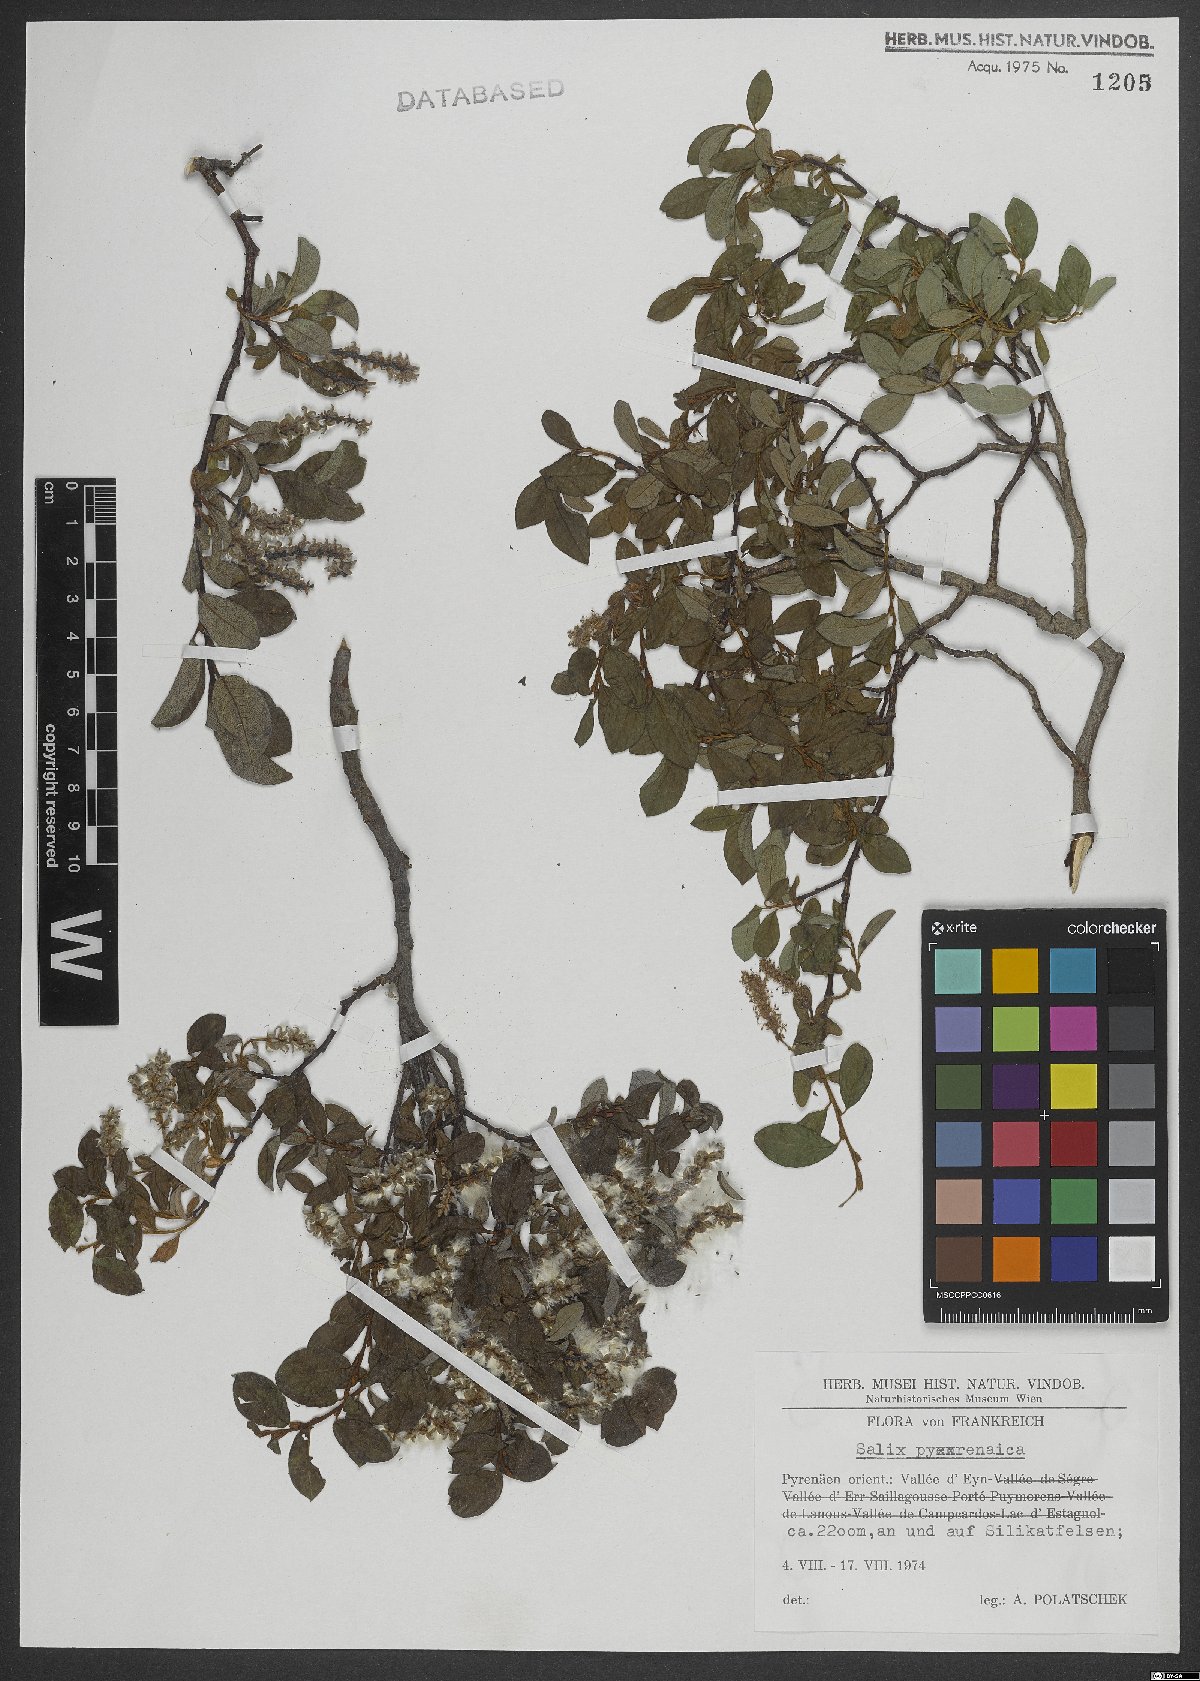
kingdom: Plantae
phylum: Tracheophyta
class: Magnoliopsida
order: Malpighiales
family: Salicaceae
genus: Salix
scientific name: Salix pyrenaica
